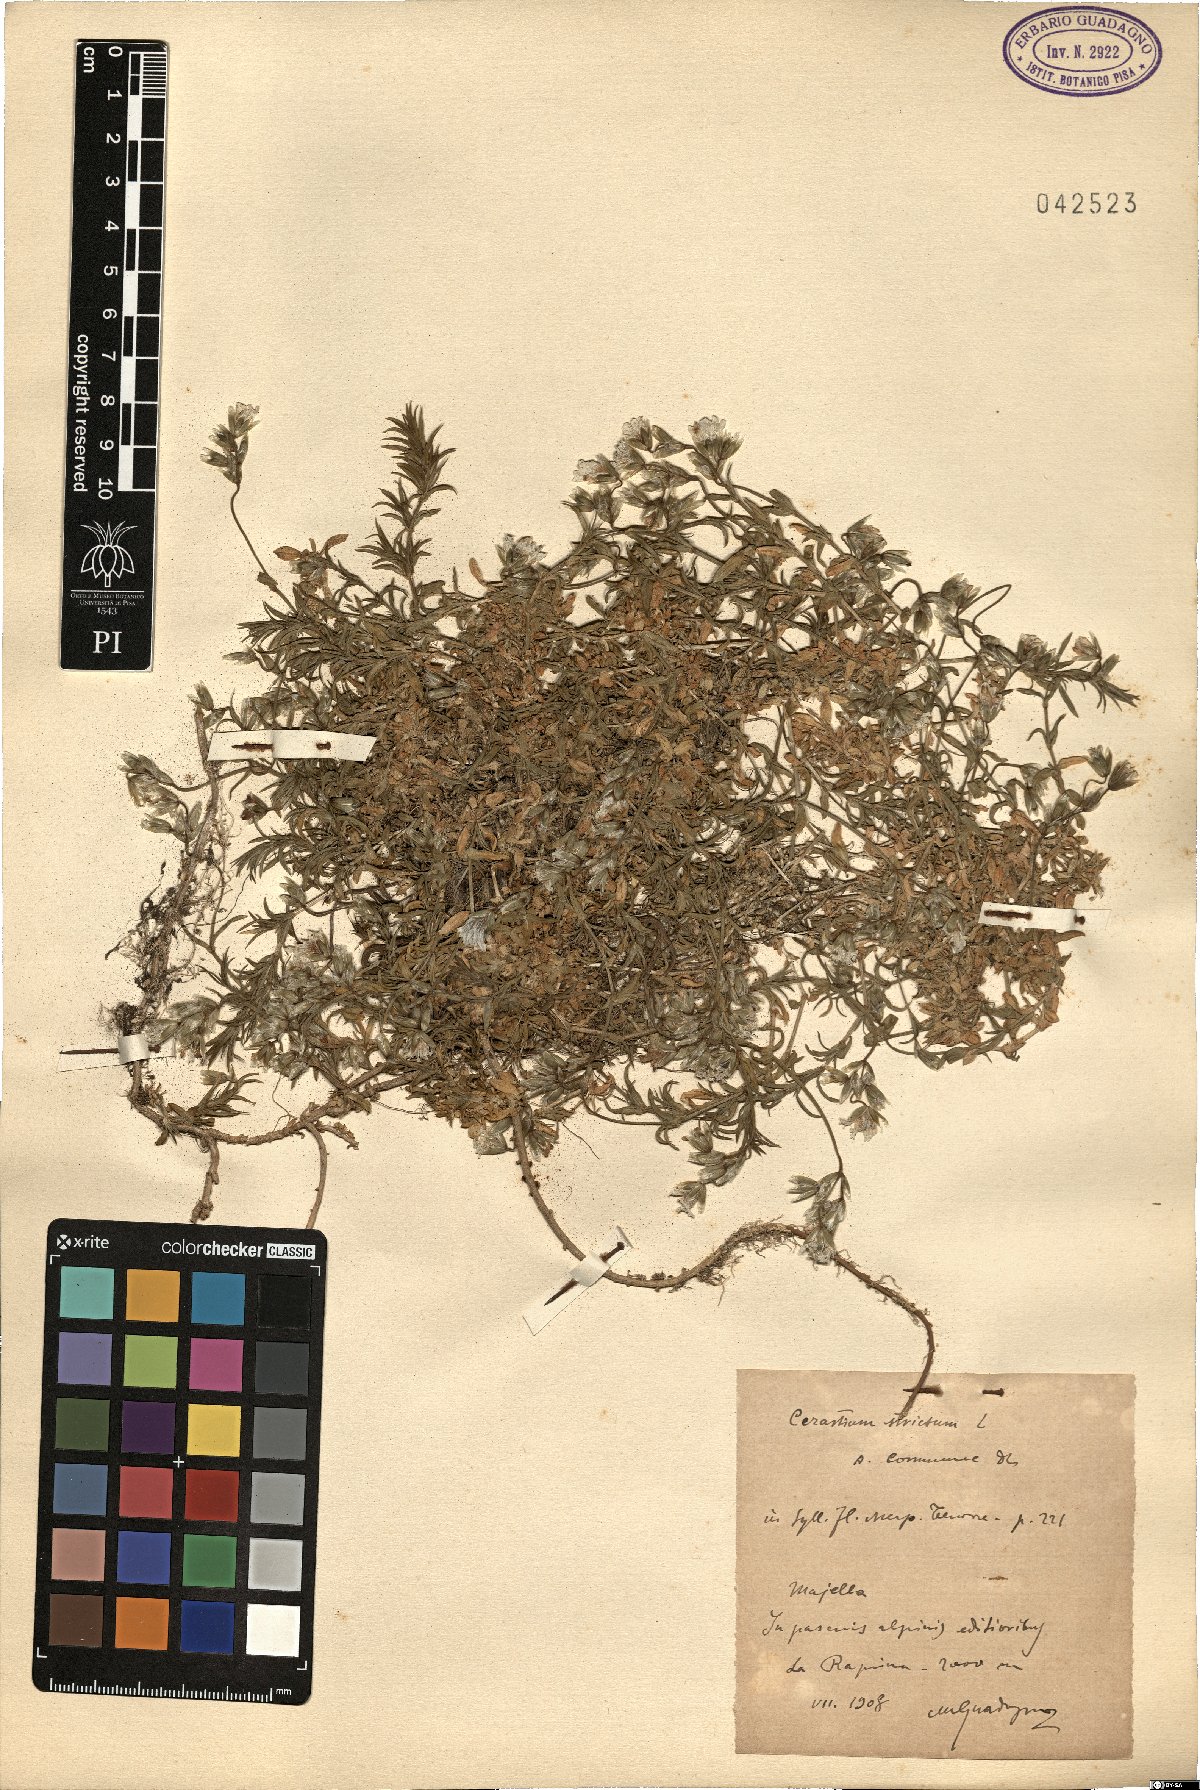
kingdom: Plantae
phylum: Tracheophyta
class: Magnoliopsida
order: Caryophyllales
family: Caryophyllaceae
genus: Cerastium
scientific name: Cerastium elongatum
